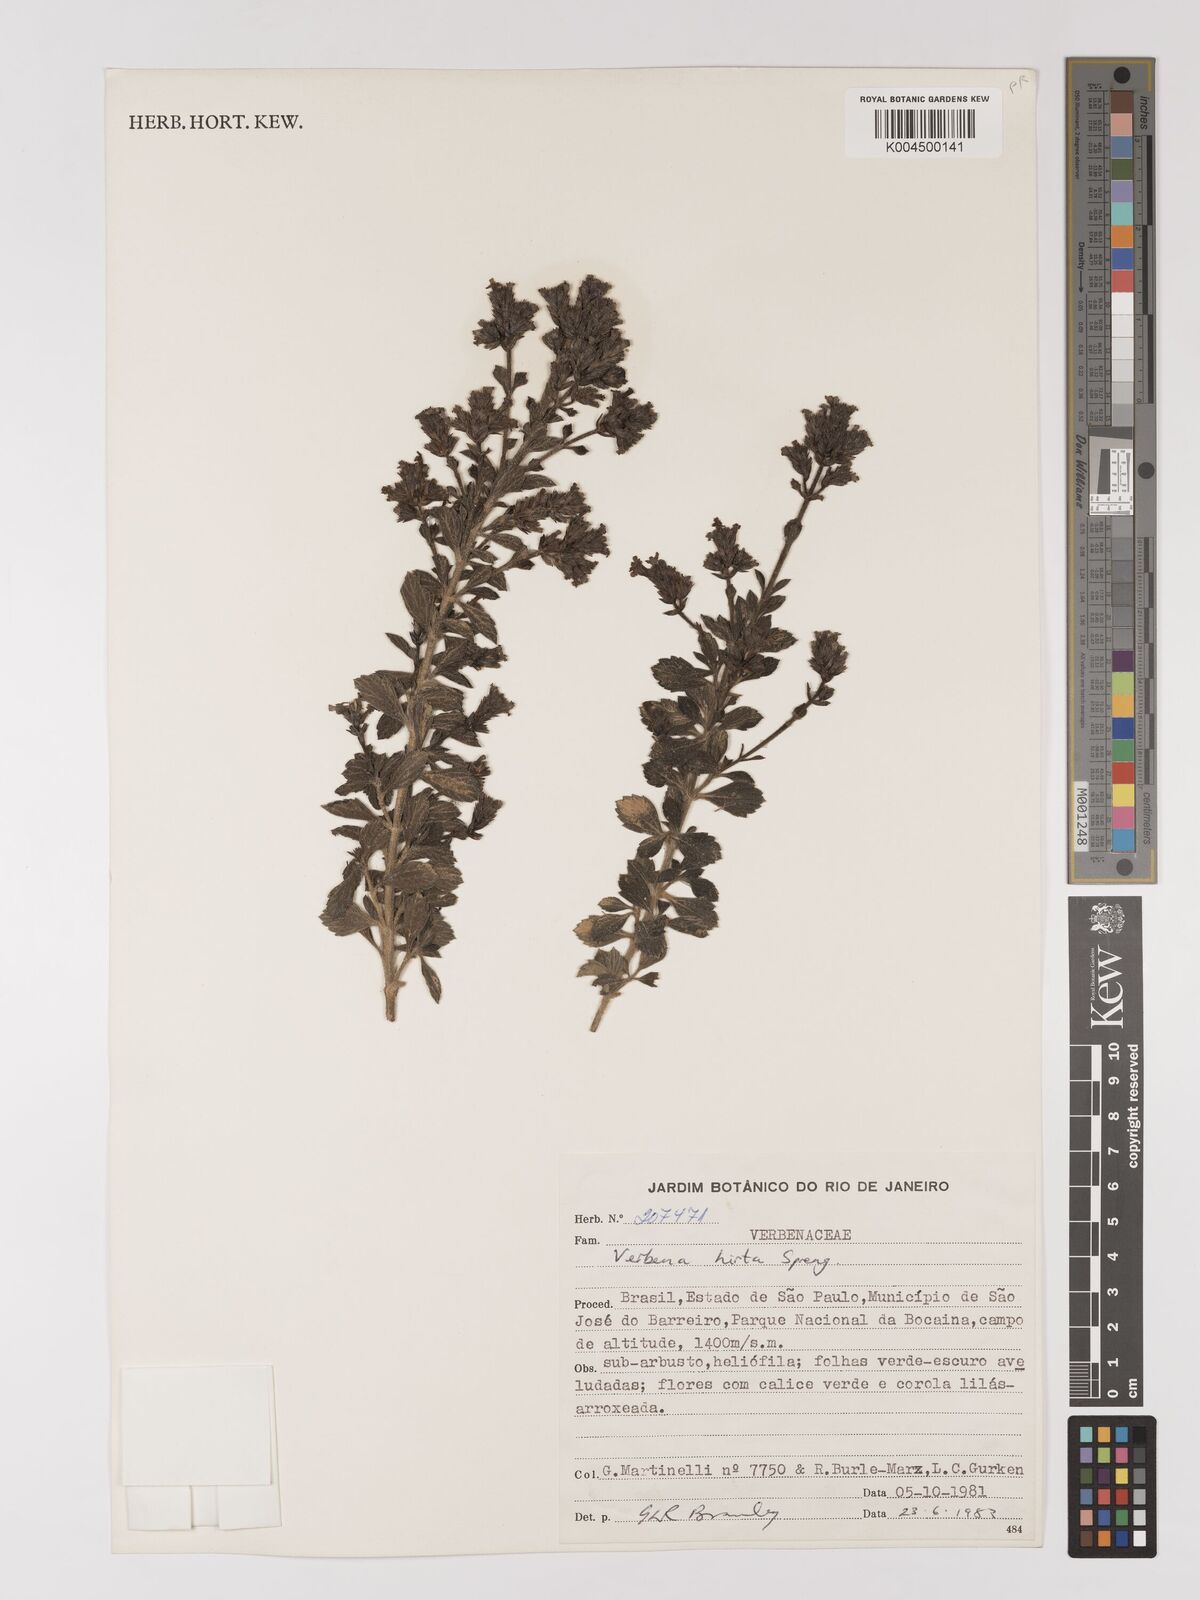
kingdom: Plantae
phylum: Tracheophyta
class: Magnoliopsida
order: Lamiales
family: Verbenaceae
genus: Verbena
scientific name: Verbena hirta
